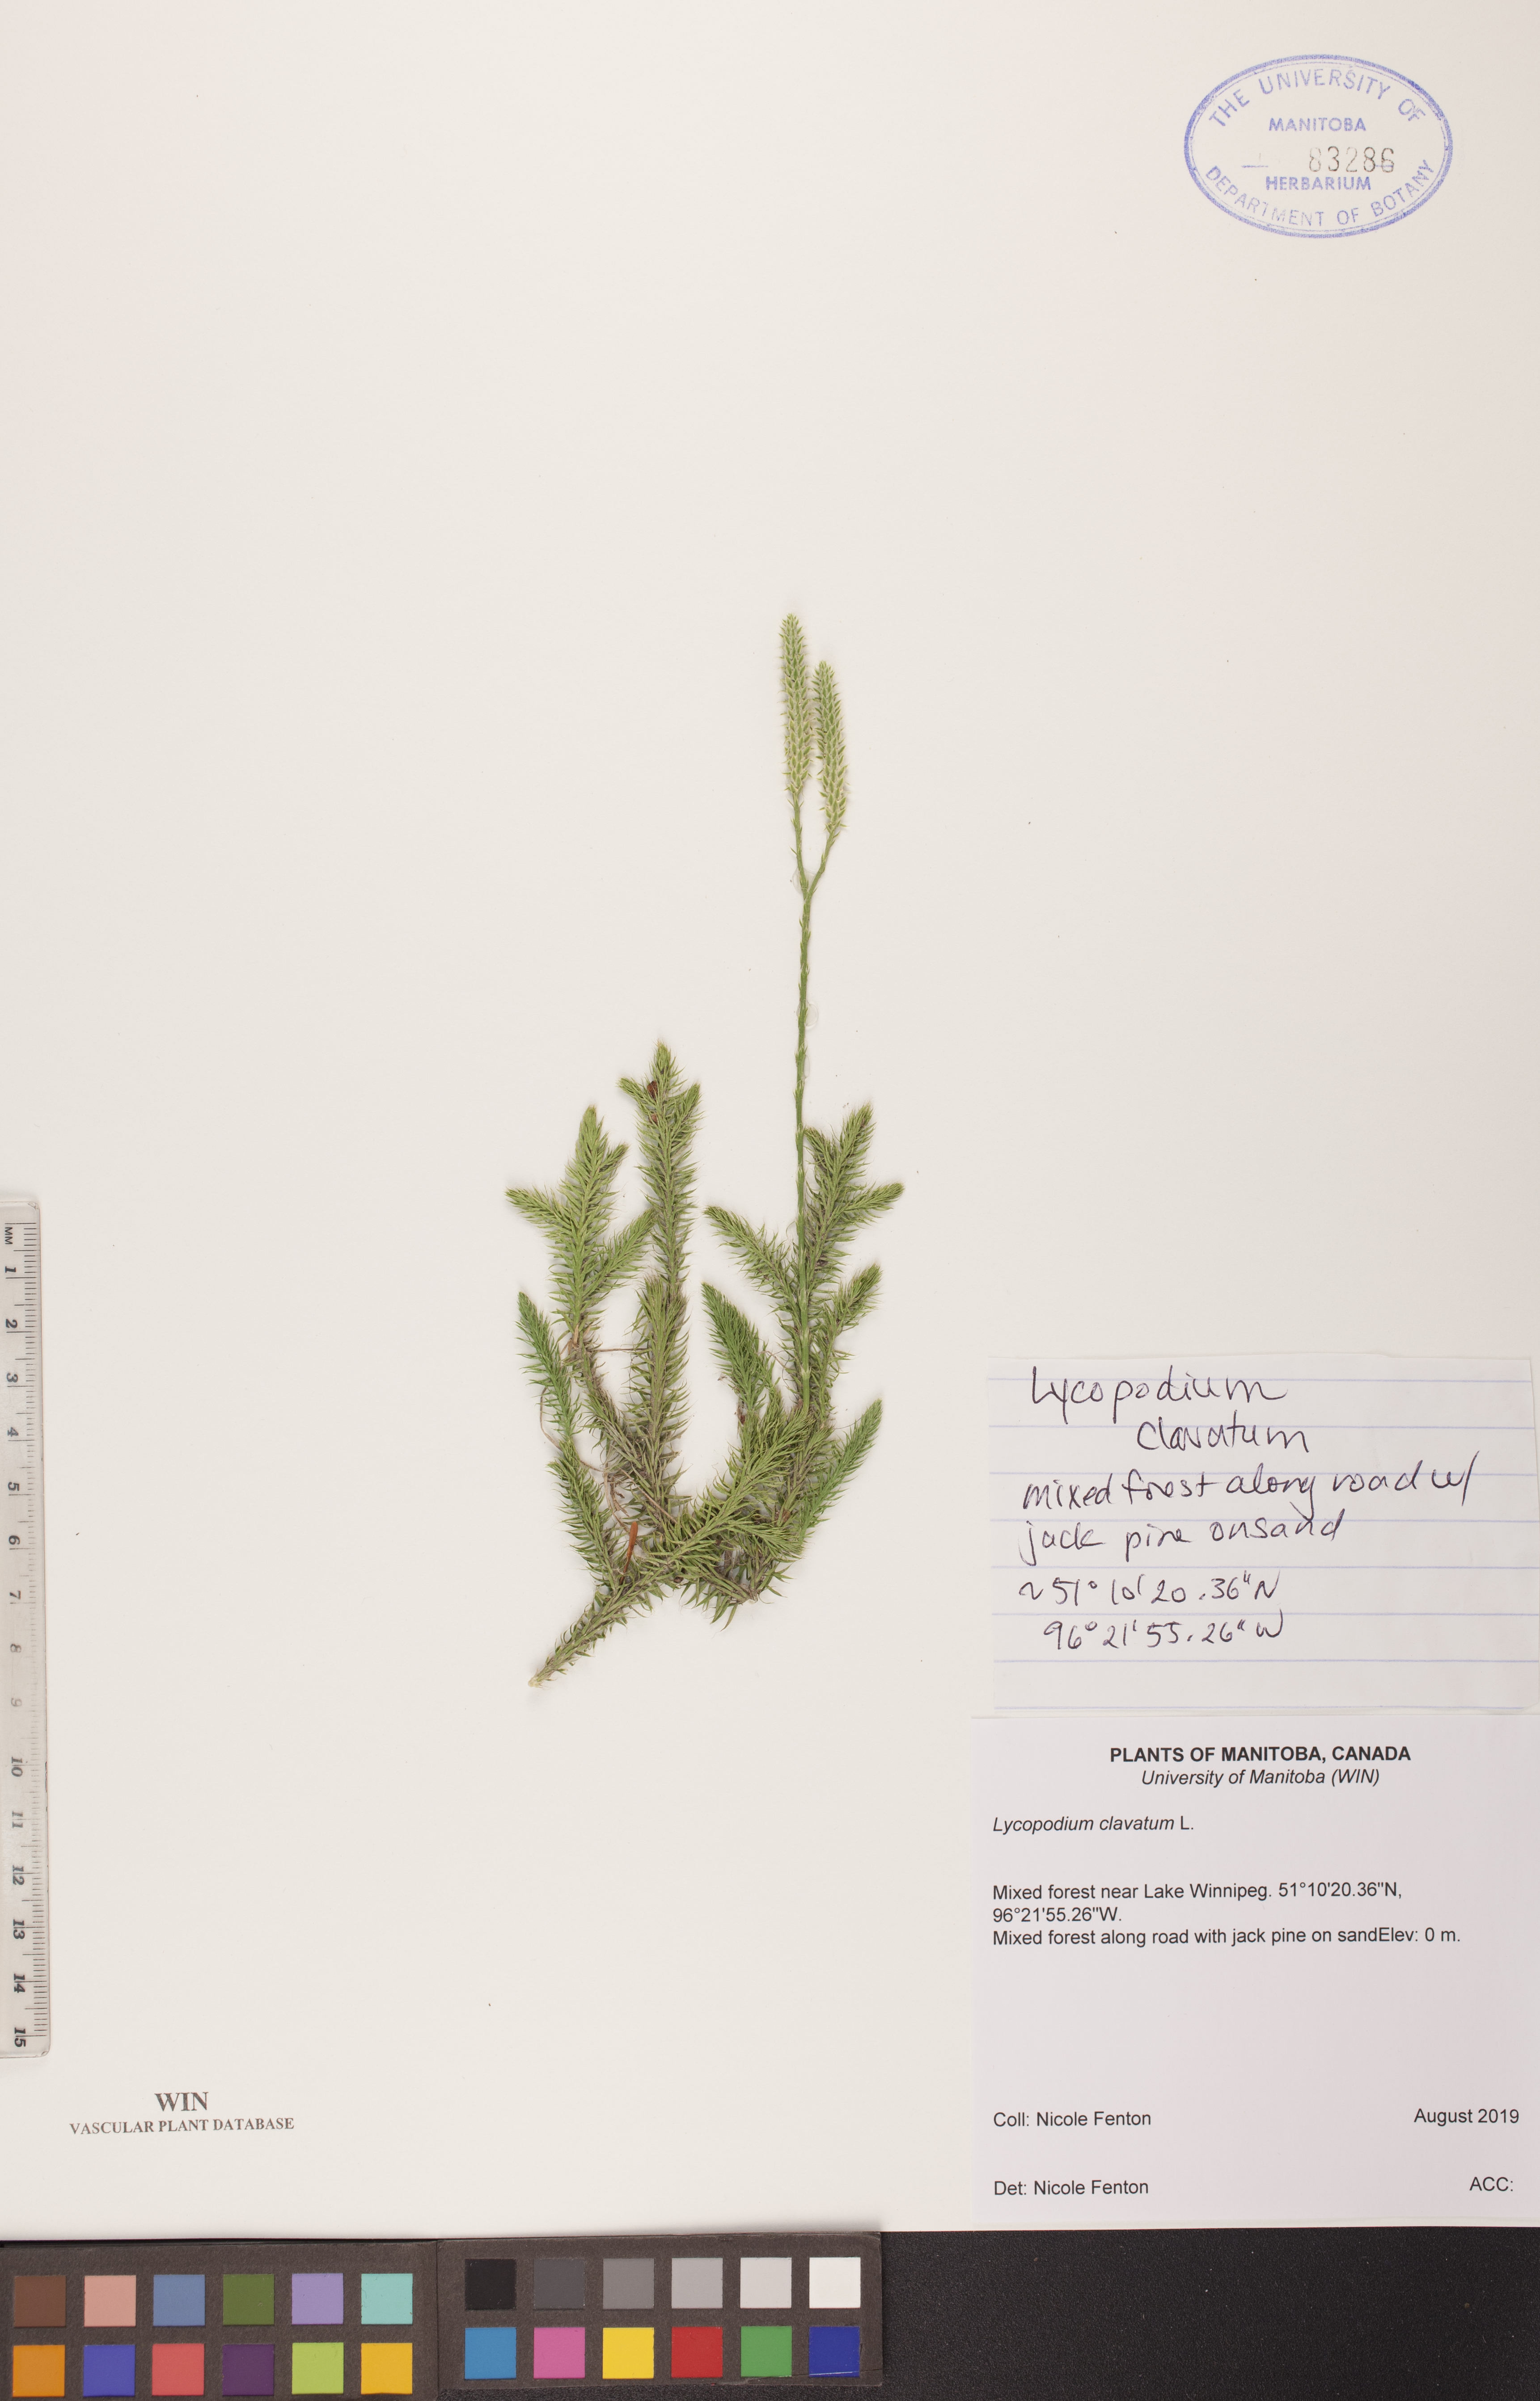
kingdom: Plantae
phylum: Tracheophyta
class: Lycopodiopsida
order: Lycopodiales
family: Lycopodiaceae
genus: Lycopodium
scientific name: Lycopodium clavatum
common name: Stag's-horn clubmoss
